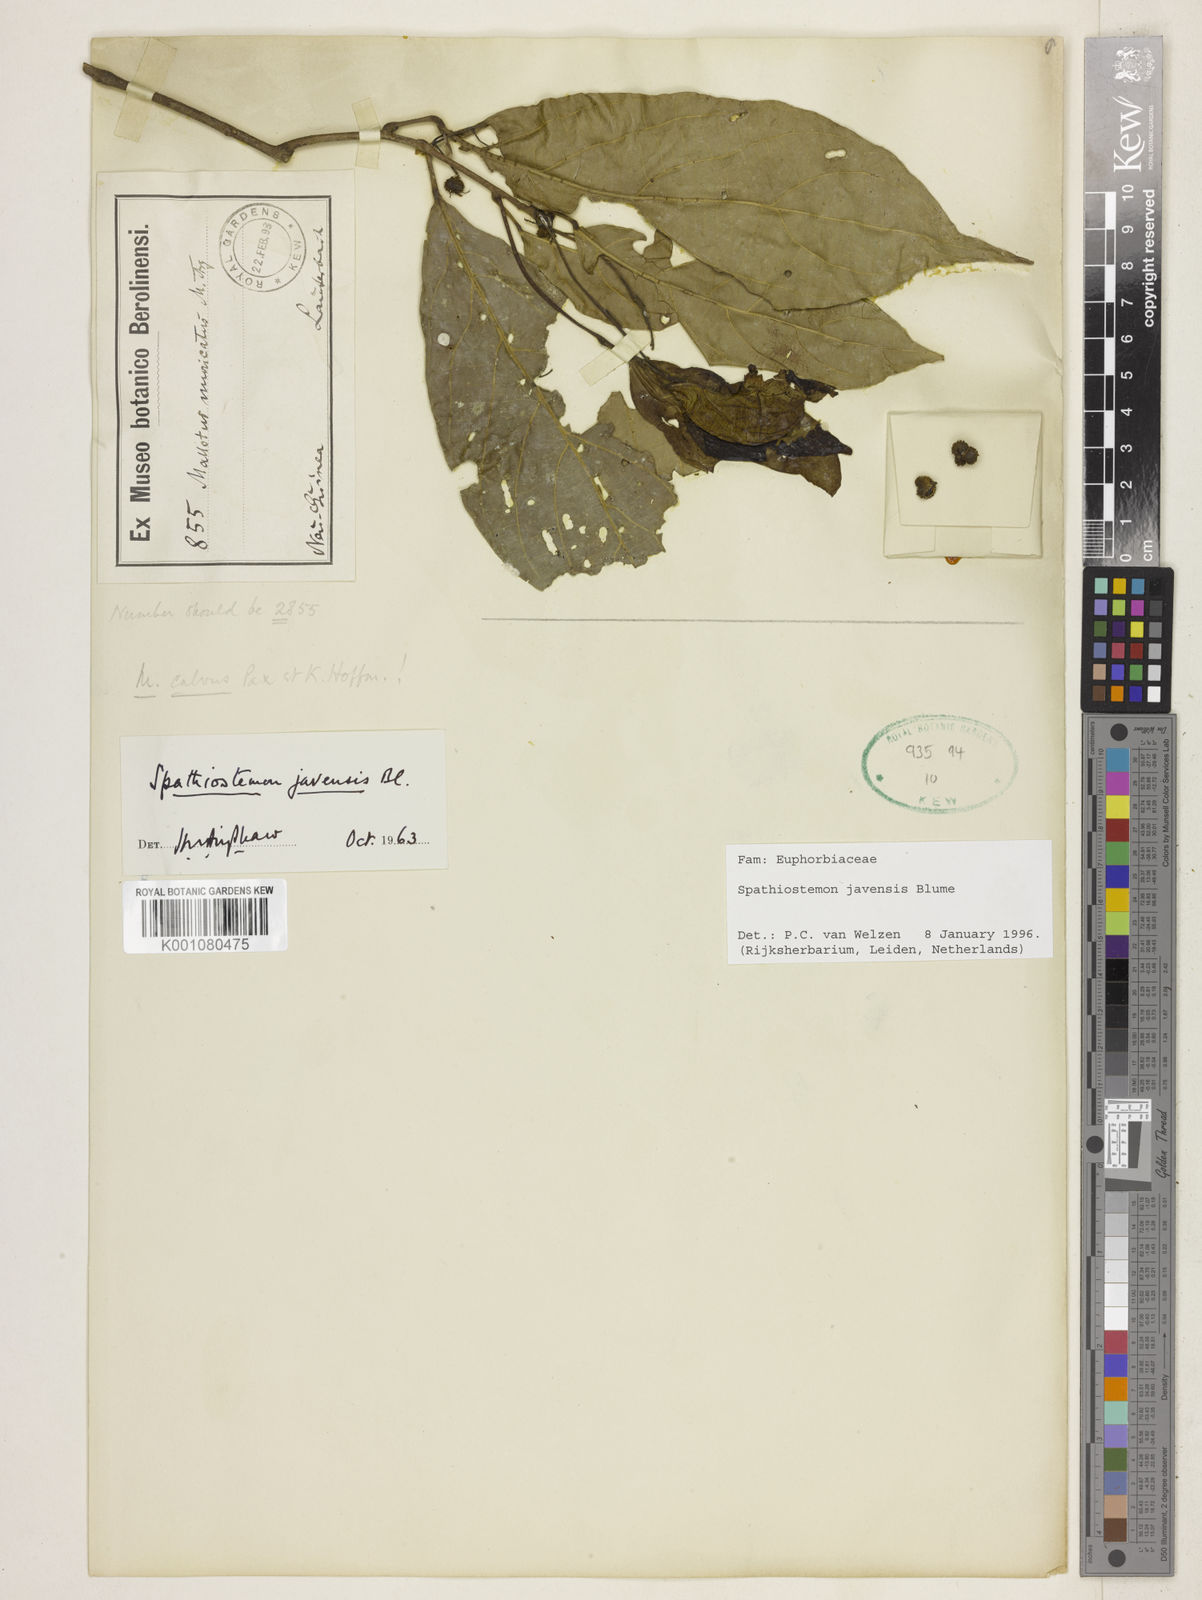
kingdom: Plantae
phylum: Tracheophyta
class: Magnoliopsida
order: Malpighiales
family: Euphorbiaceae
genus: Spathiostemon
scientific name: Spathiostemon javensis
